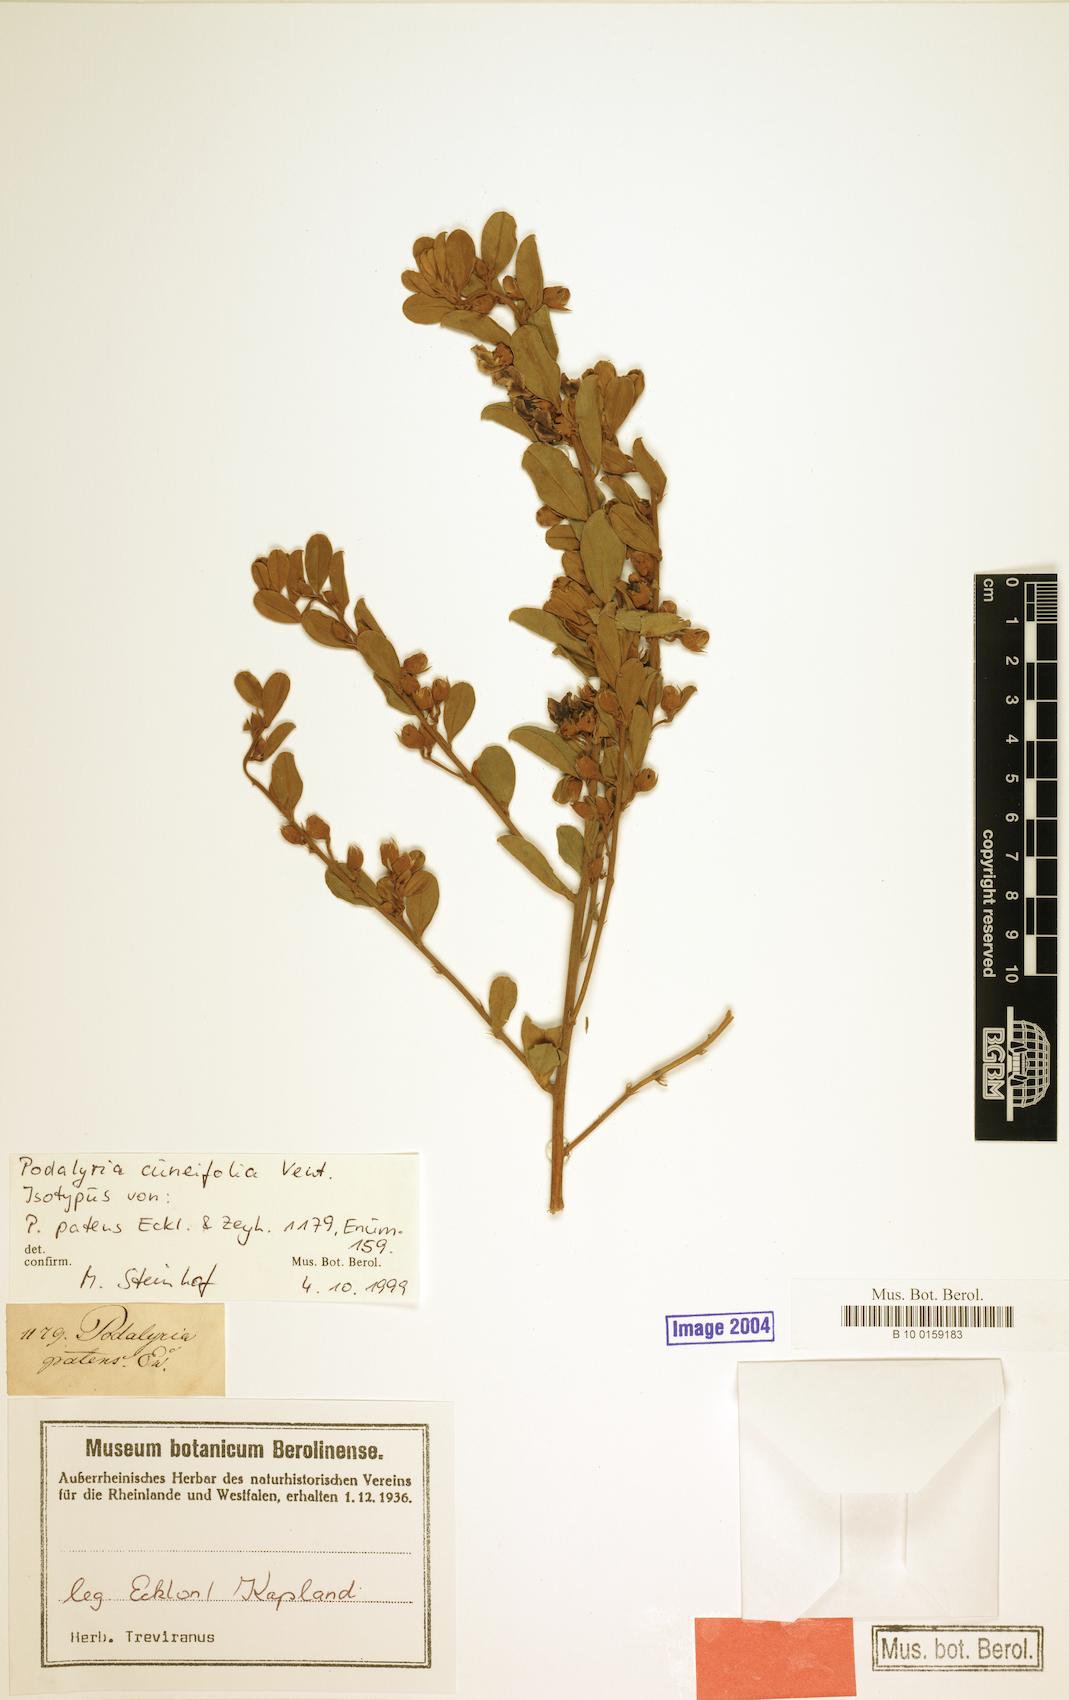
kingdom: Plantae
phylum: Tracheophyta
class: Magnoliopsida
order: Fabales
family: Fabaceae
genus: Podalyria
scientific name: Podalyria myrtillifolia
